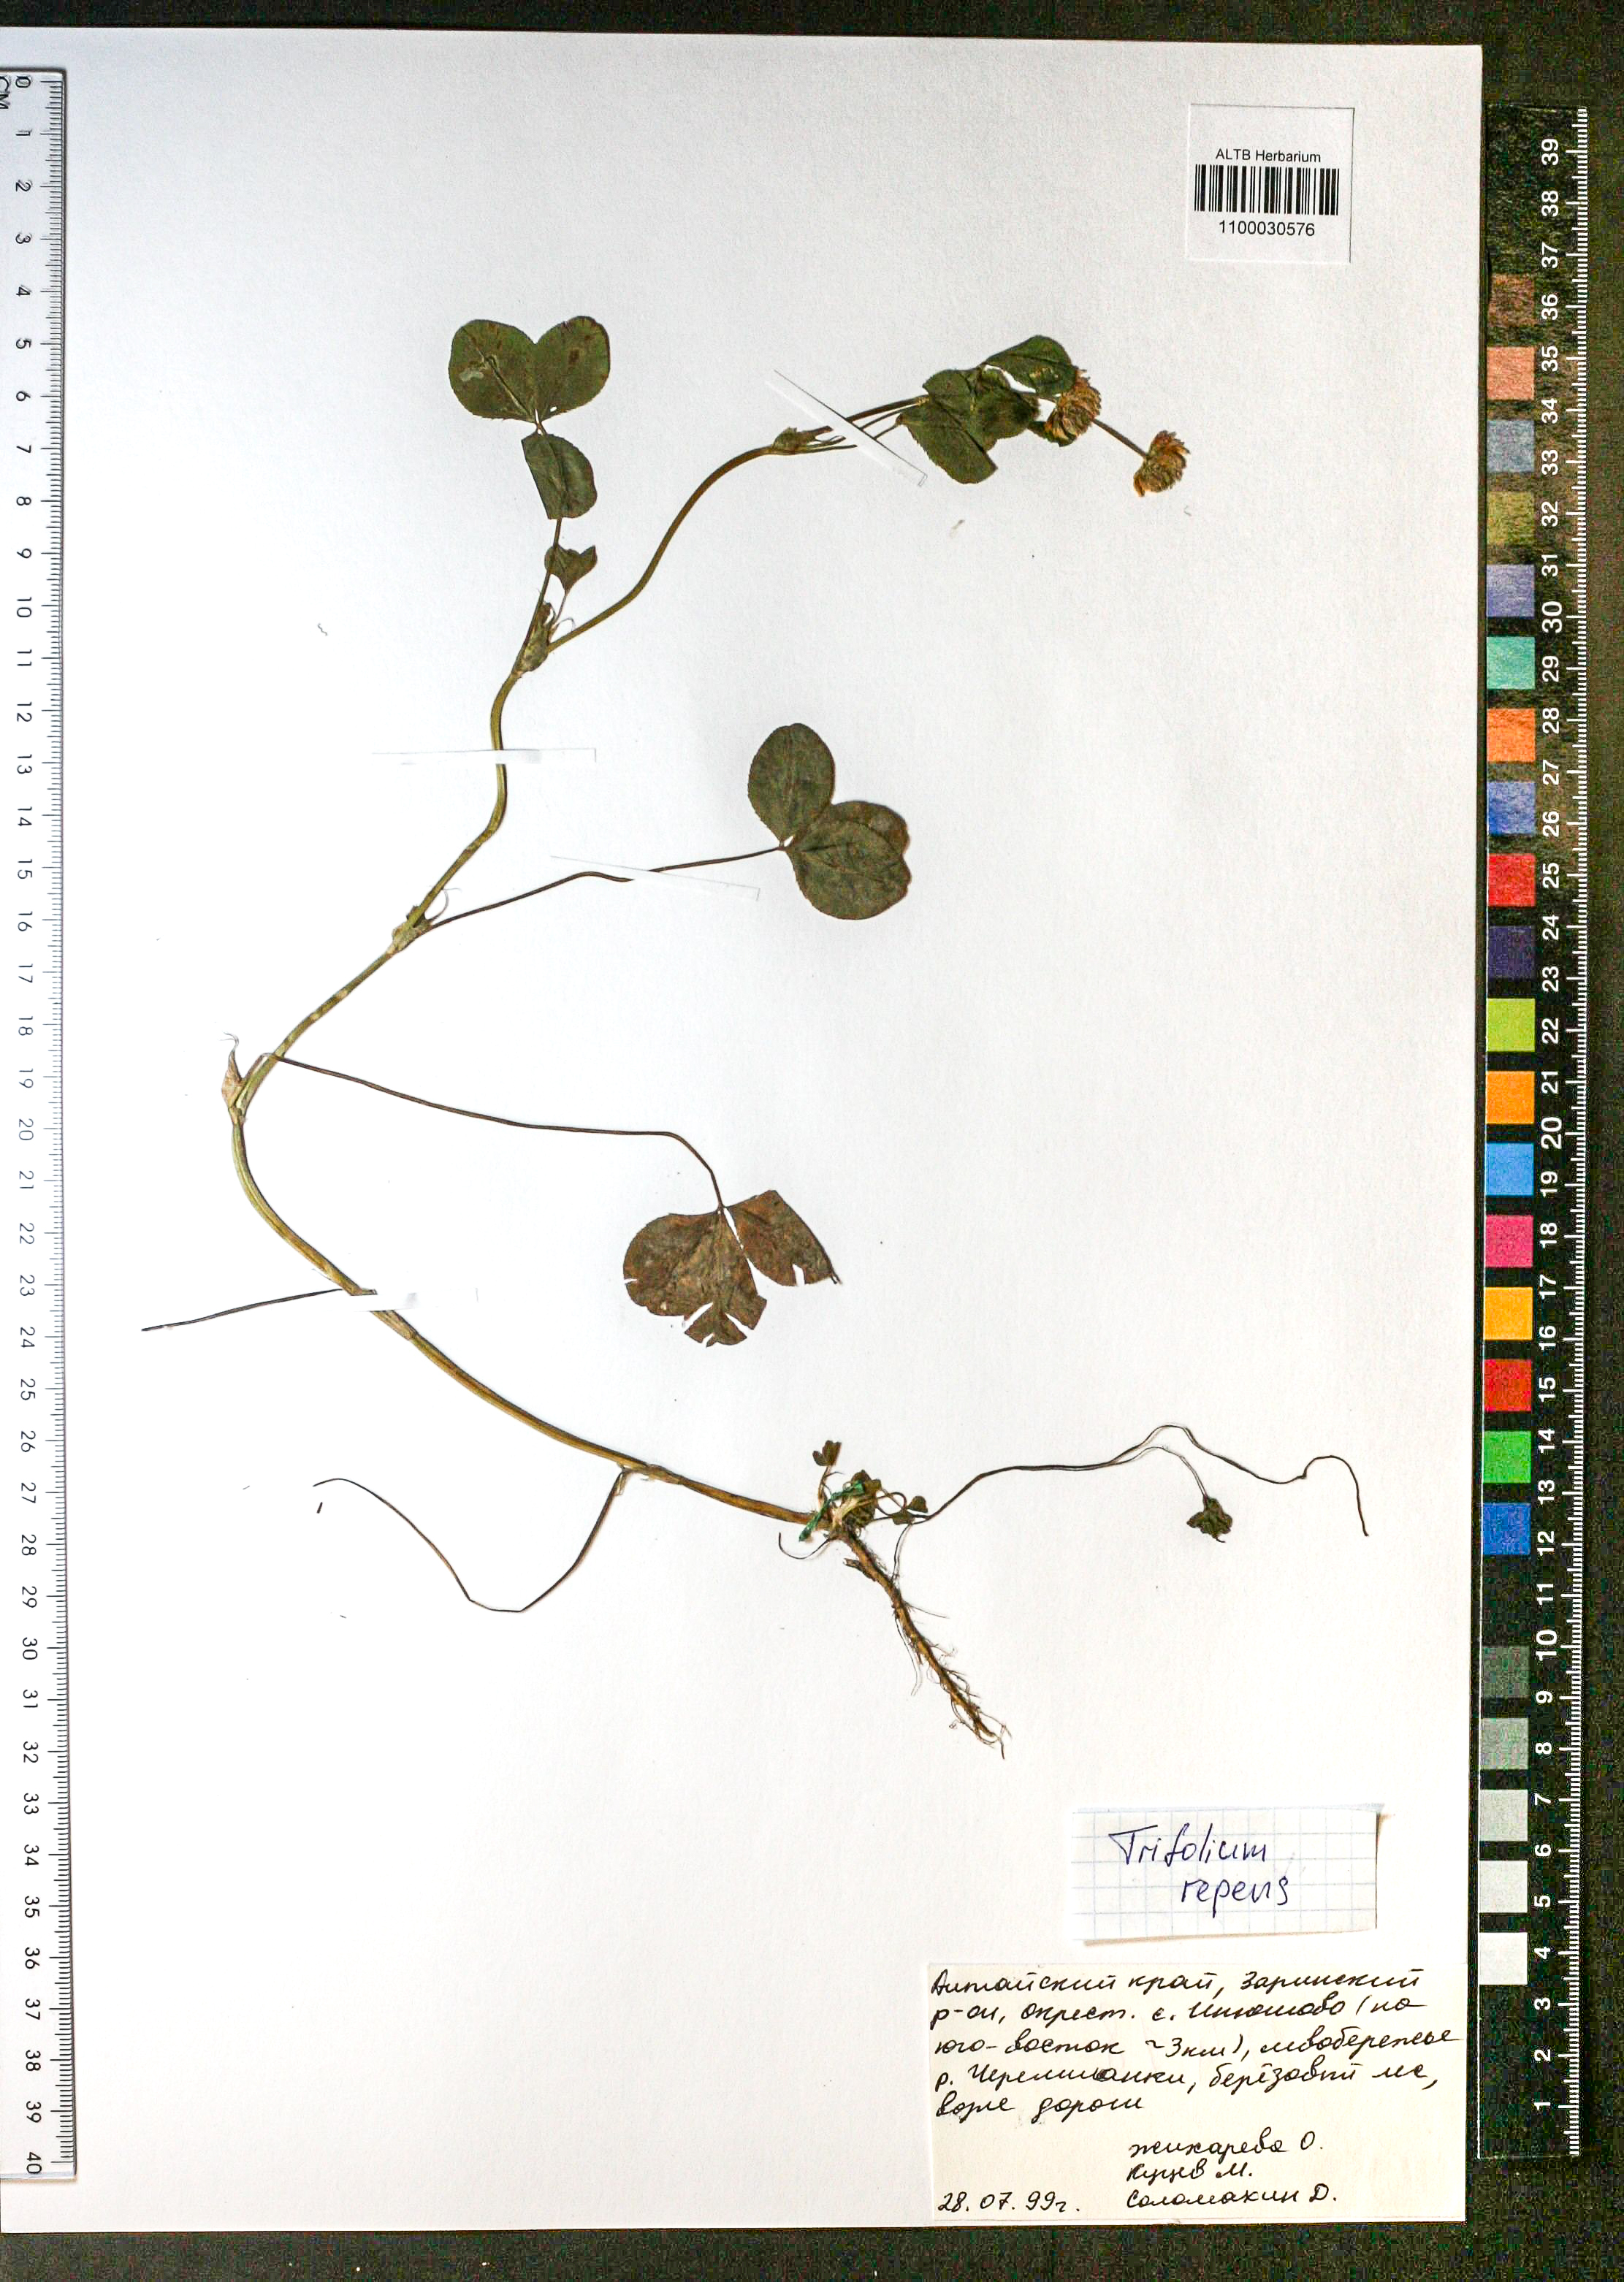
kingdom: Plantae
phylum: Tracheophyta
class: Magnoliopsida
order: Fabales
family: Fabaceae
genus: Trifolium
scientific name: Trifolium repens
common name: White clover
